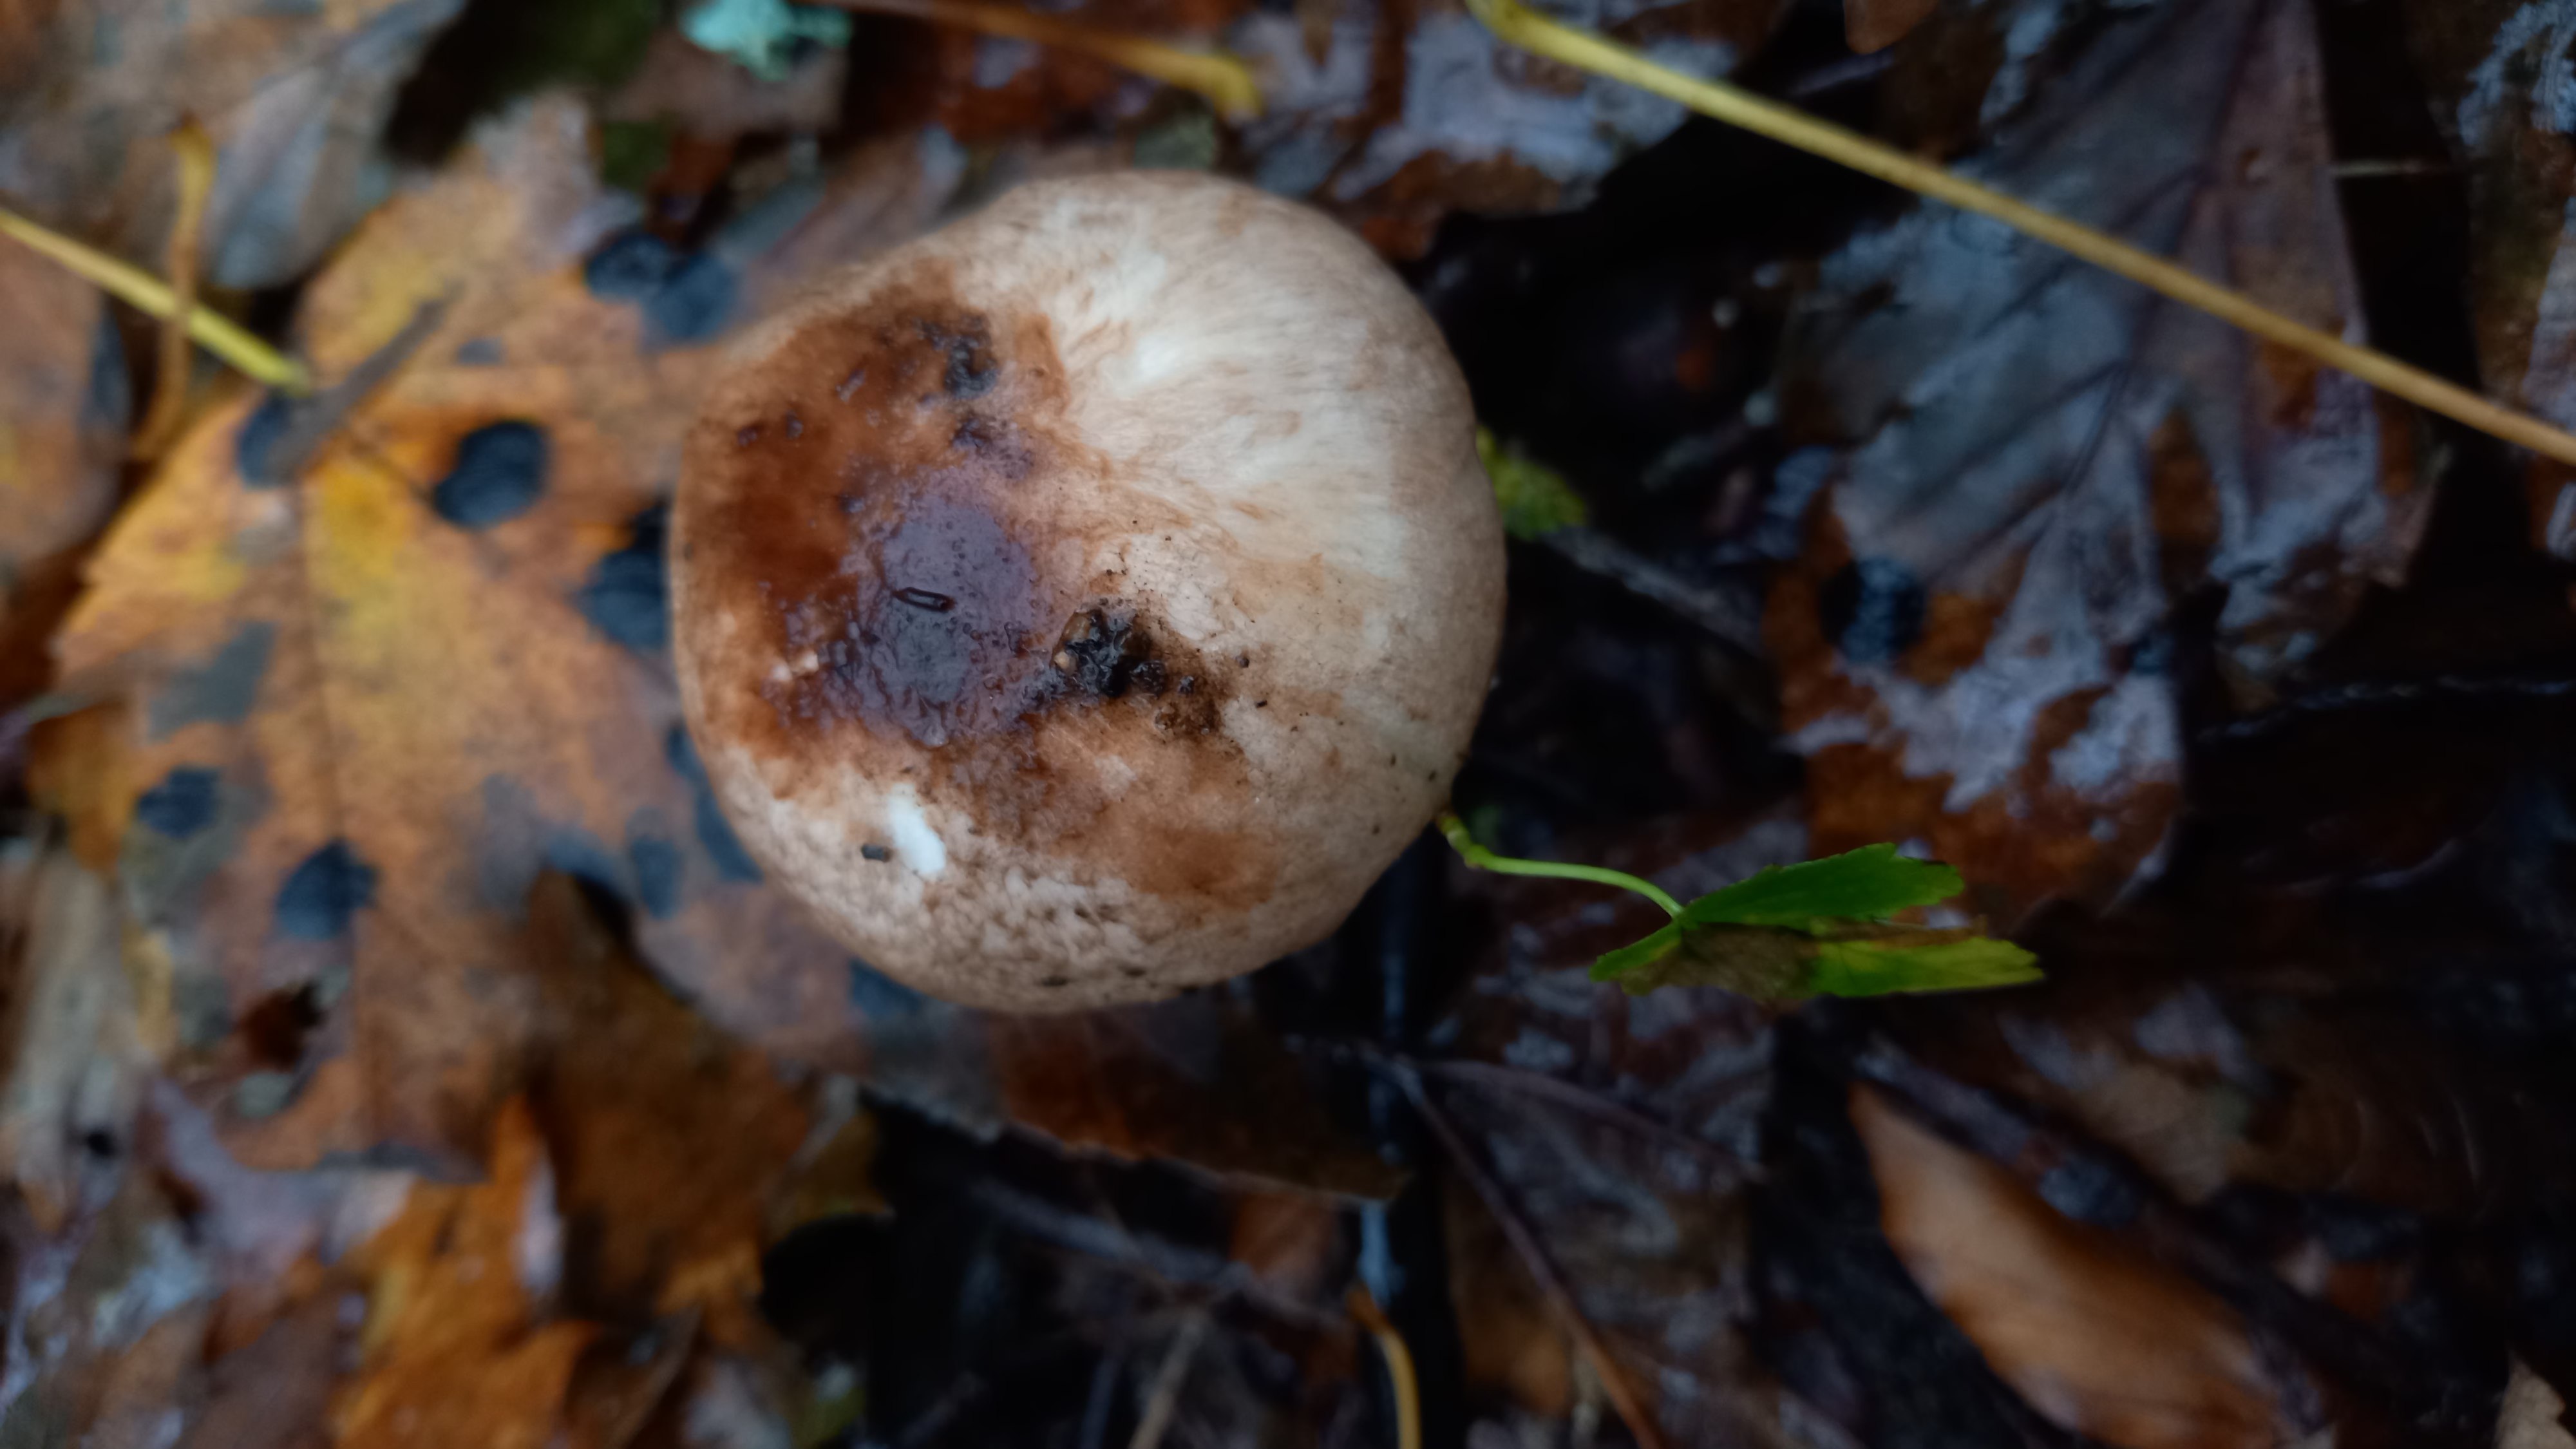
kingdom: Fungi
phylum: Basidiomycota
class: Agaricomycetes
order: Agaricales
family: Agaricaceae
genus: Agaricus
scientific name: Agaricus impudicus
